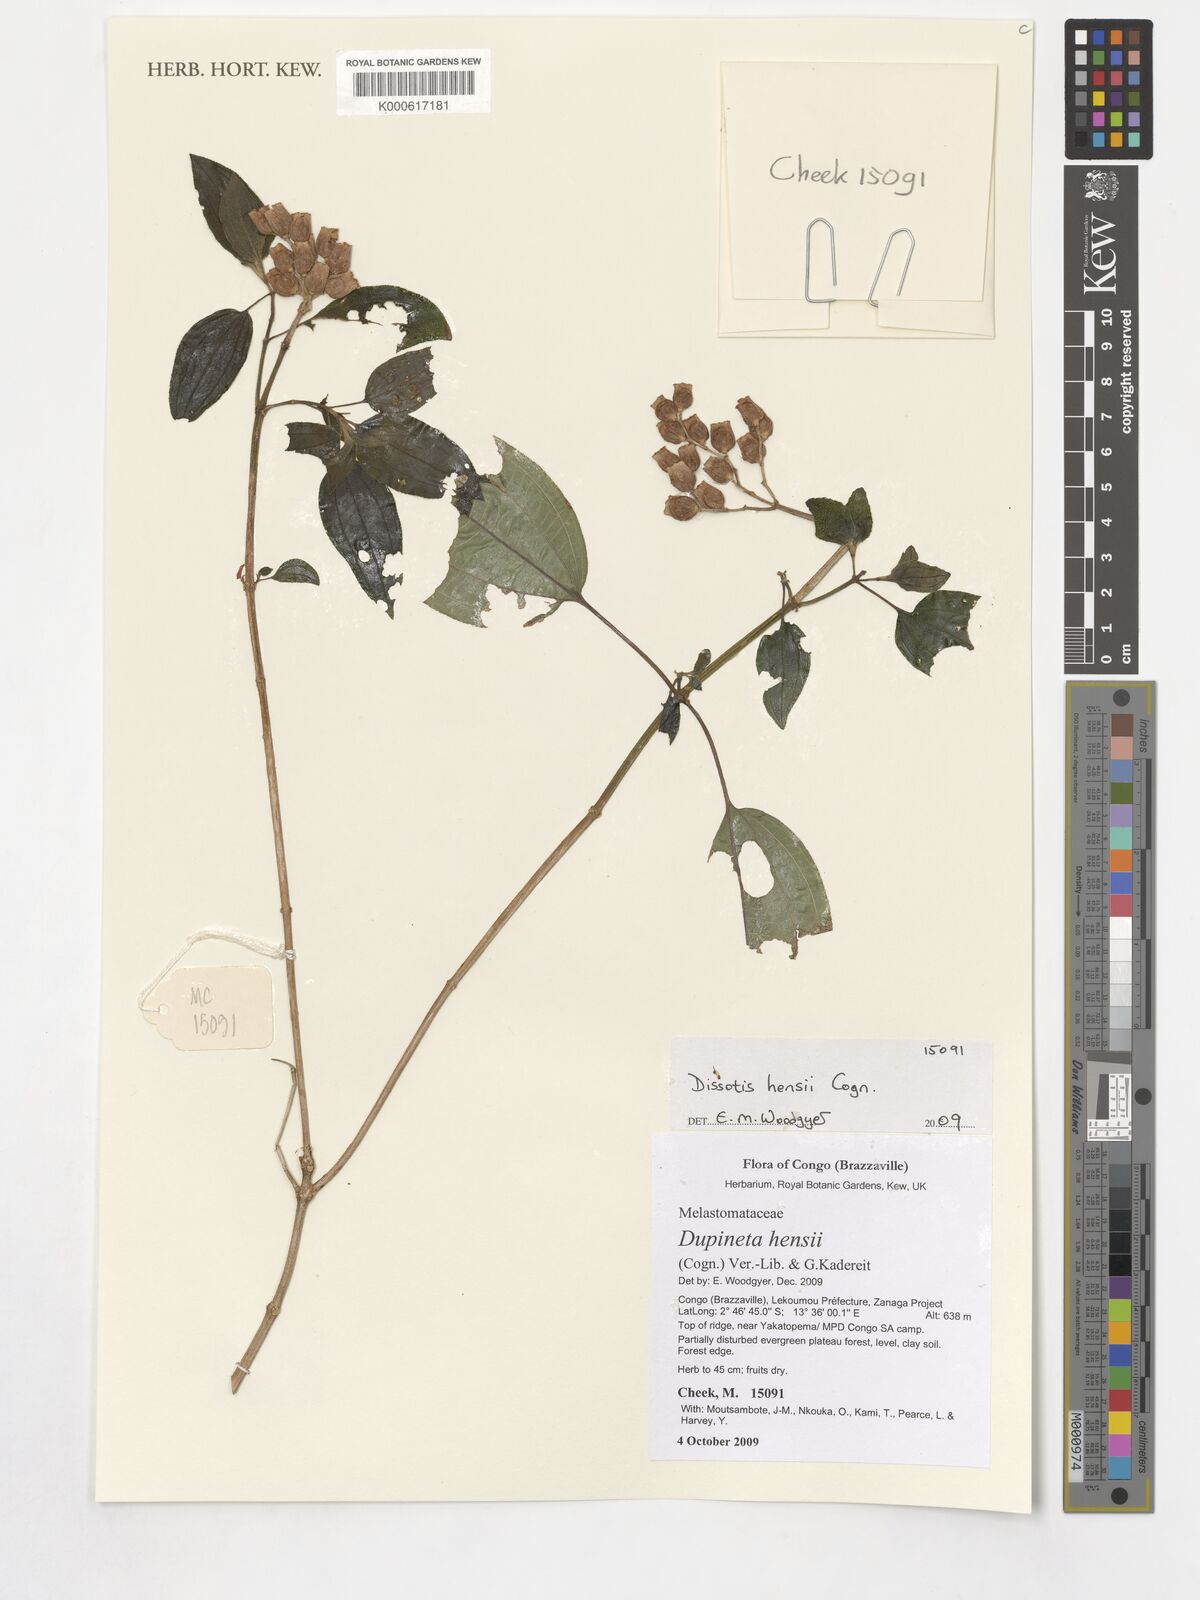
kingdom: Plantae
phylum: Tracheophyta
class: Magnoliopsida
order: Myrtales
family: Melastomataceae
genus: Dupineta
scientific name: Dupineta hensii
